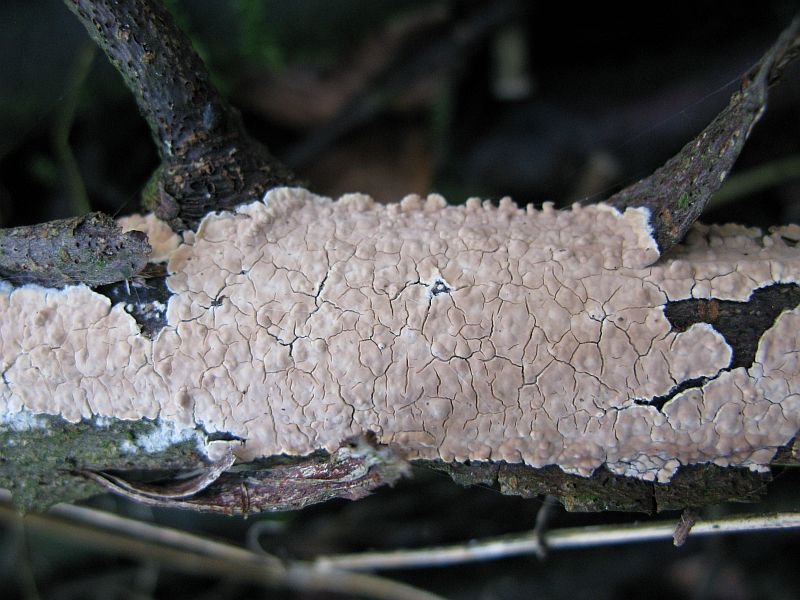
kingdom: Fungi
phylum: Basidiomycota
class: Agaricomycetes
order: Agaricales
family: Physalacriaceae
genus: Cylindrobasidium
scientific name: Cylindrobasidium evolvens
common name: sprækkehinde
